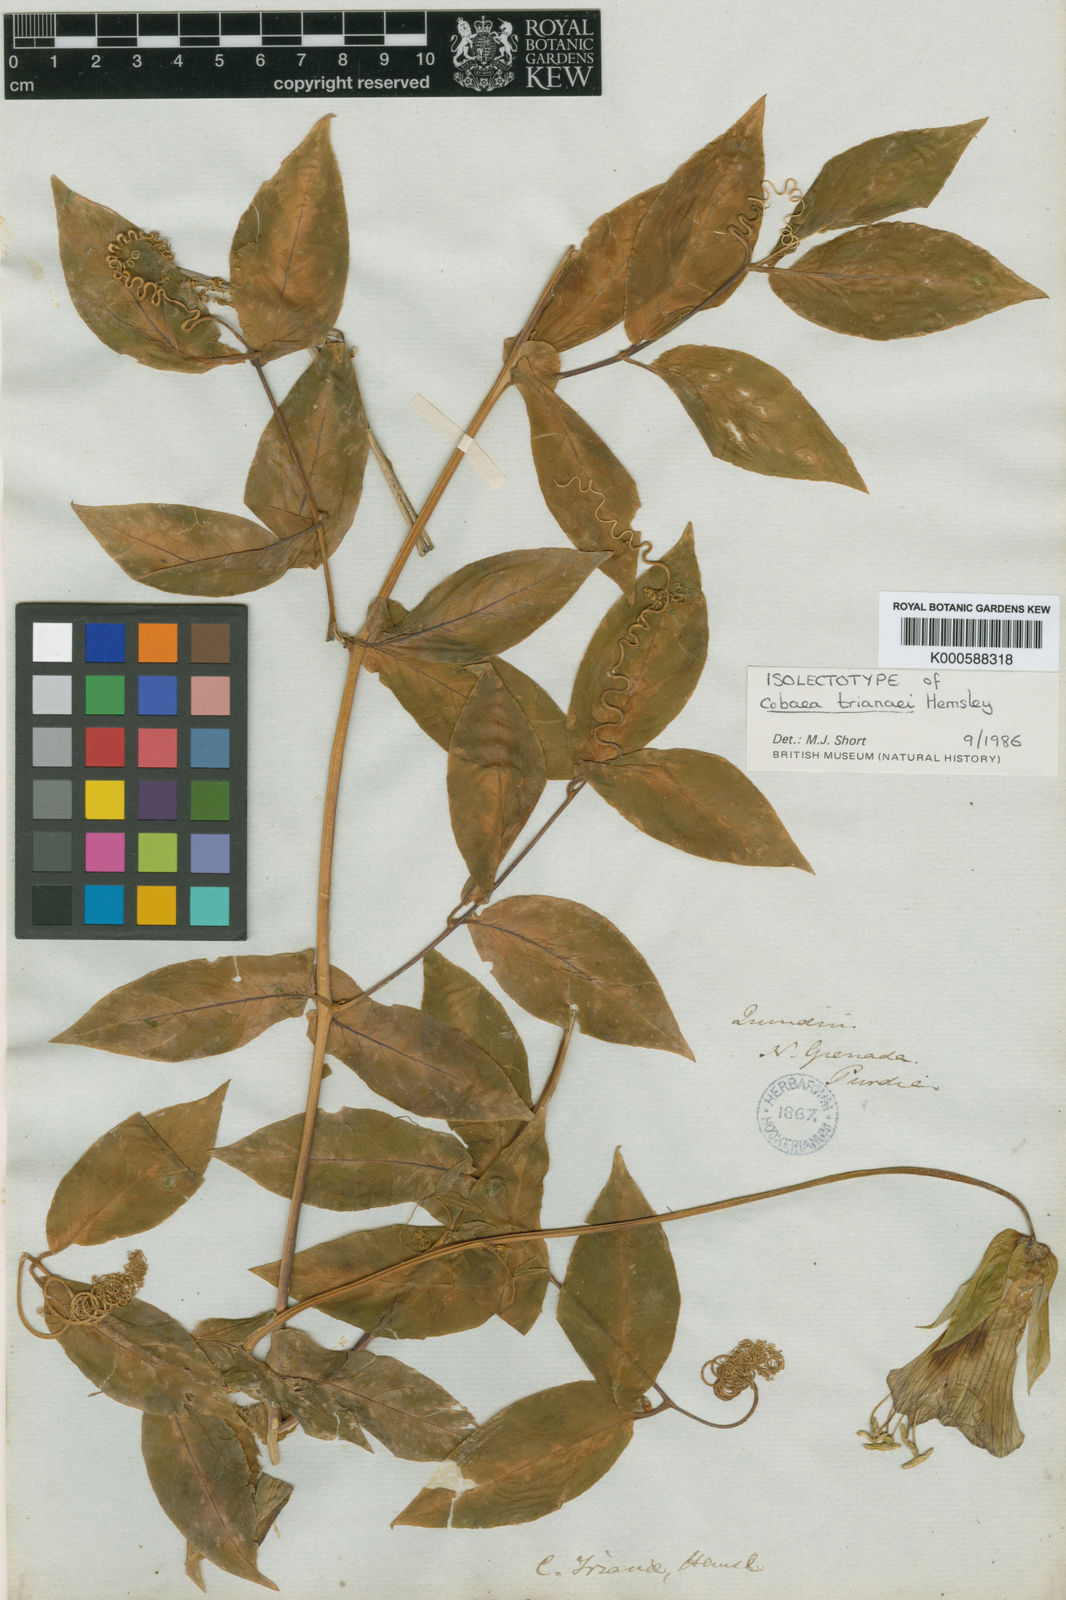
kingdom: Plantae
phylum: Tracheophyta
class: Magnoliopsida
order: Ericales
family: Polemoniaceae
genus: Cobaea
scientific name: Cobaea trianae
